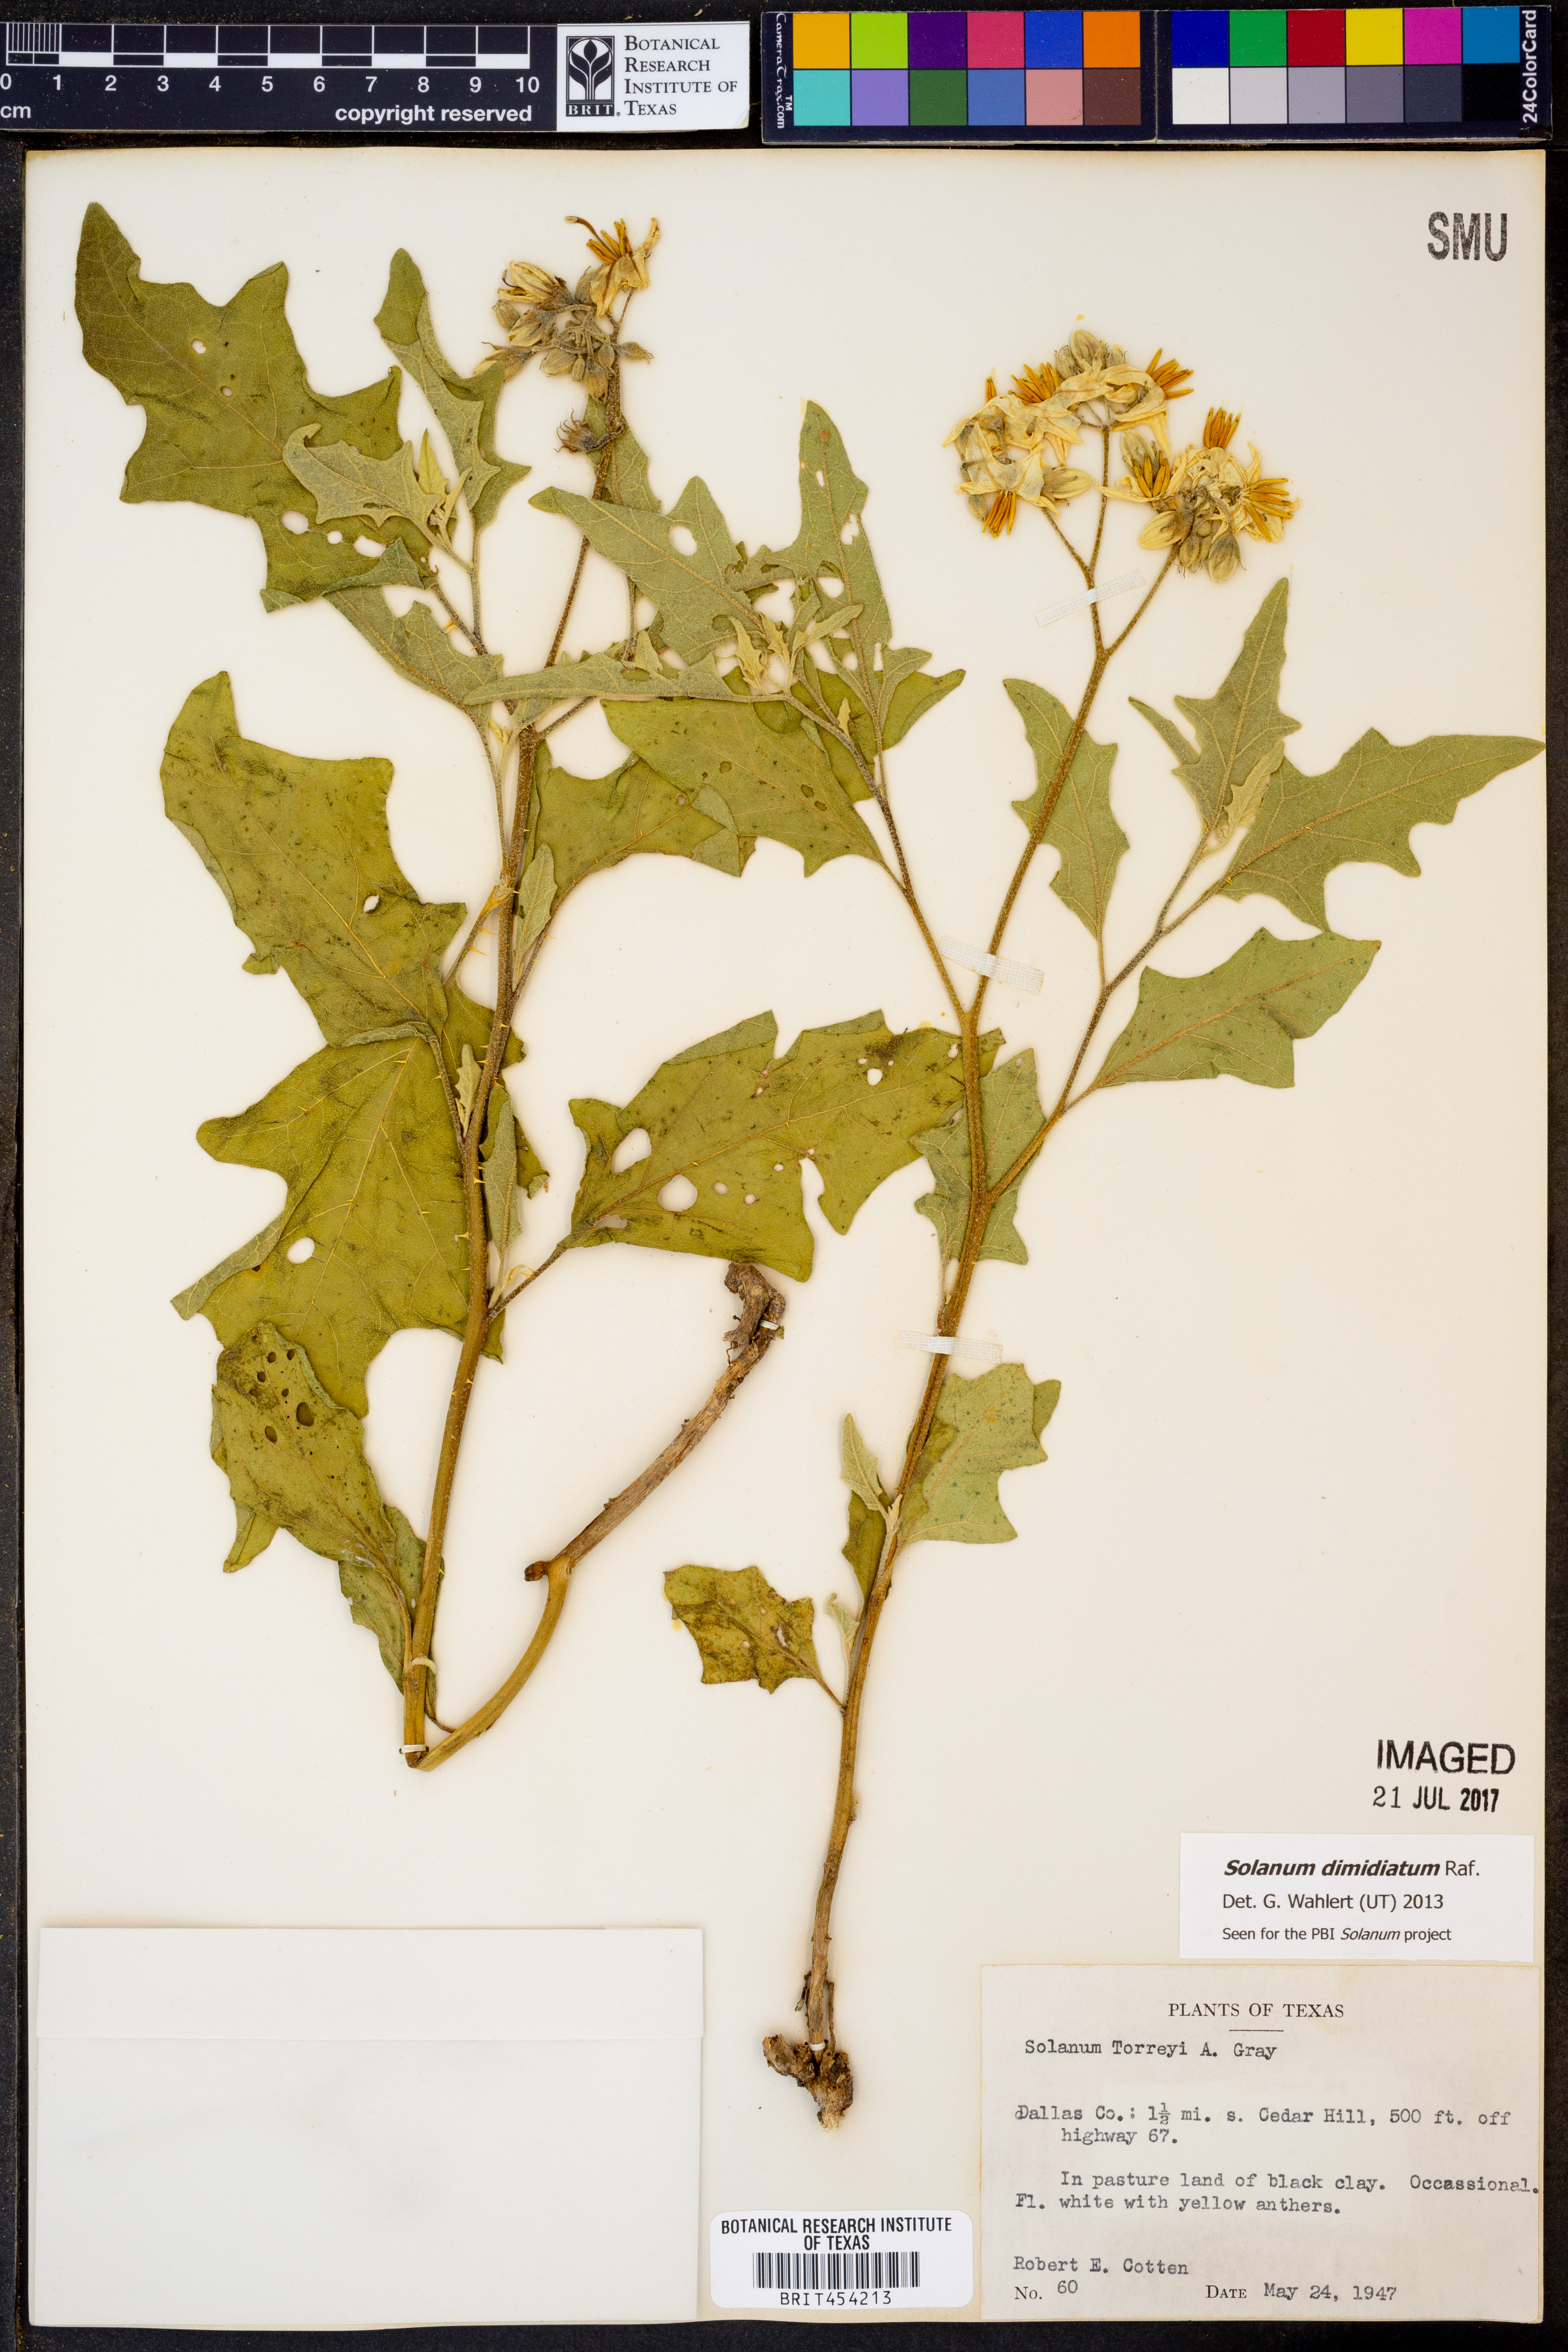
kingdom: Plantae
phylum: Tracheophyta
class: Magnoliopsida
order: Solanales
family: Solanaceae
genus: Solanum
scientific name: Solanum dimidiatum
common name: Carolina horse-nettle
